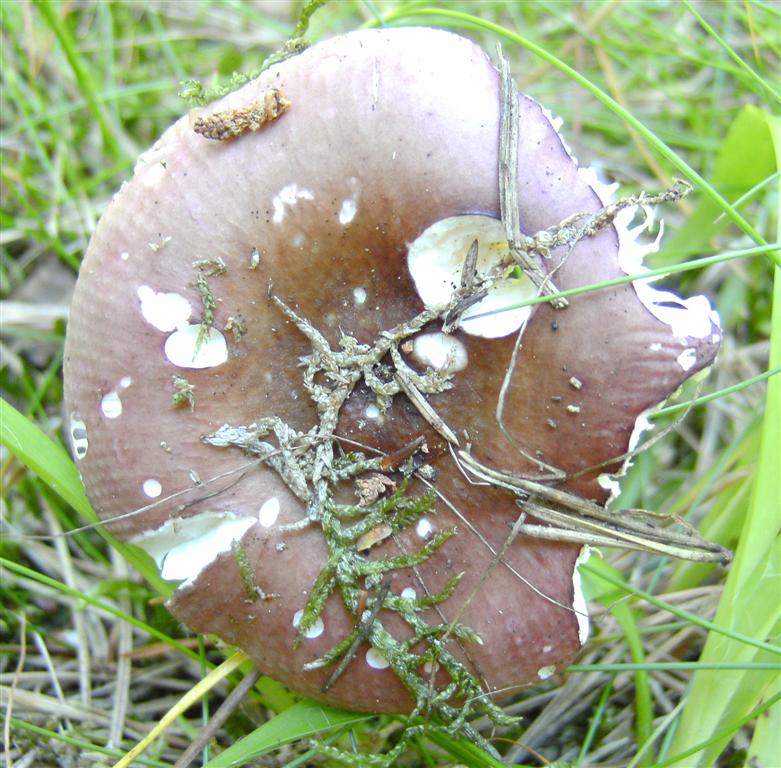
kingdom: Fungi
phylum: Basidiomycota
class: Agaricomycetes
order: Russulales
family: Russulaceae
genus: Russula
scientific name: Russula
